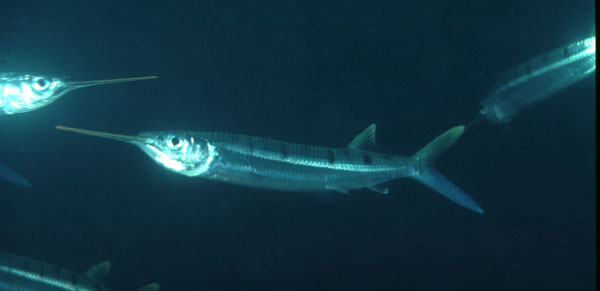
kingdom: Animalia
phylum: Chordata
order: Beloniformes
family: Hemiramphidae
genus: Hemiramphus
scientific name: Hemiramphus far
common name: Black-barred halfbeak
